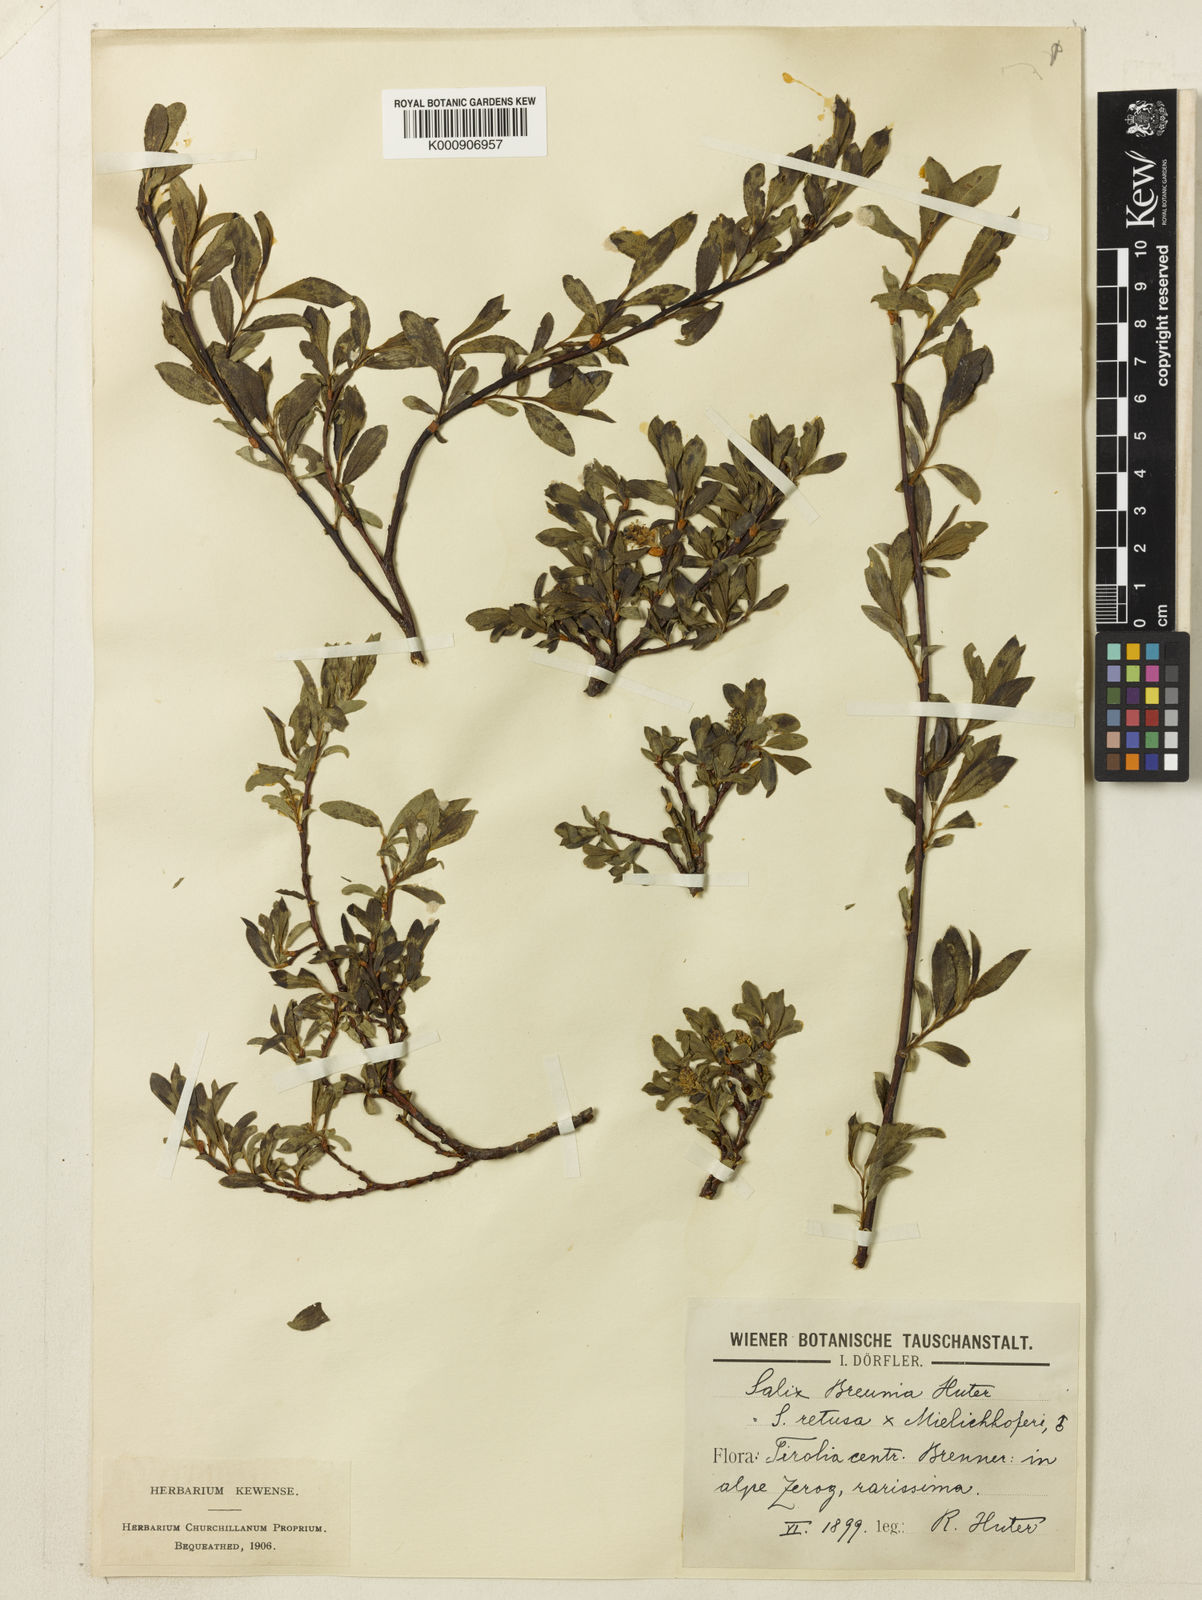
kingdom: Plantae
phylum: Tracheophyta
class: Magnoliopsida
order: Malpighiales
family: Salicaceae
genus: Salix
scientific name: Salix myrsinifolia
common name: Dark-leaved willow
